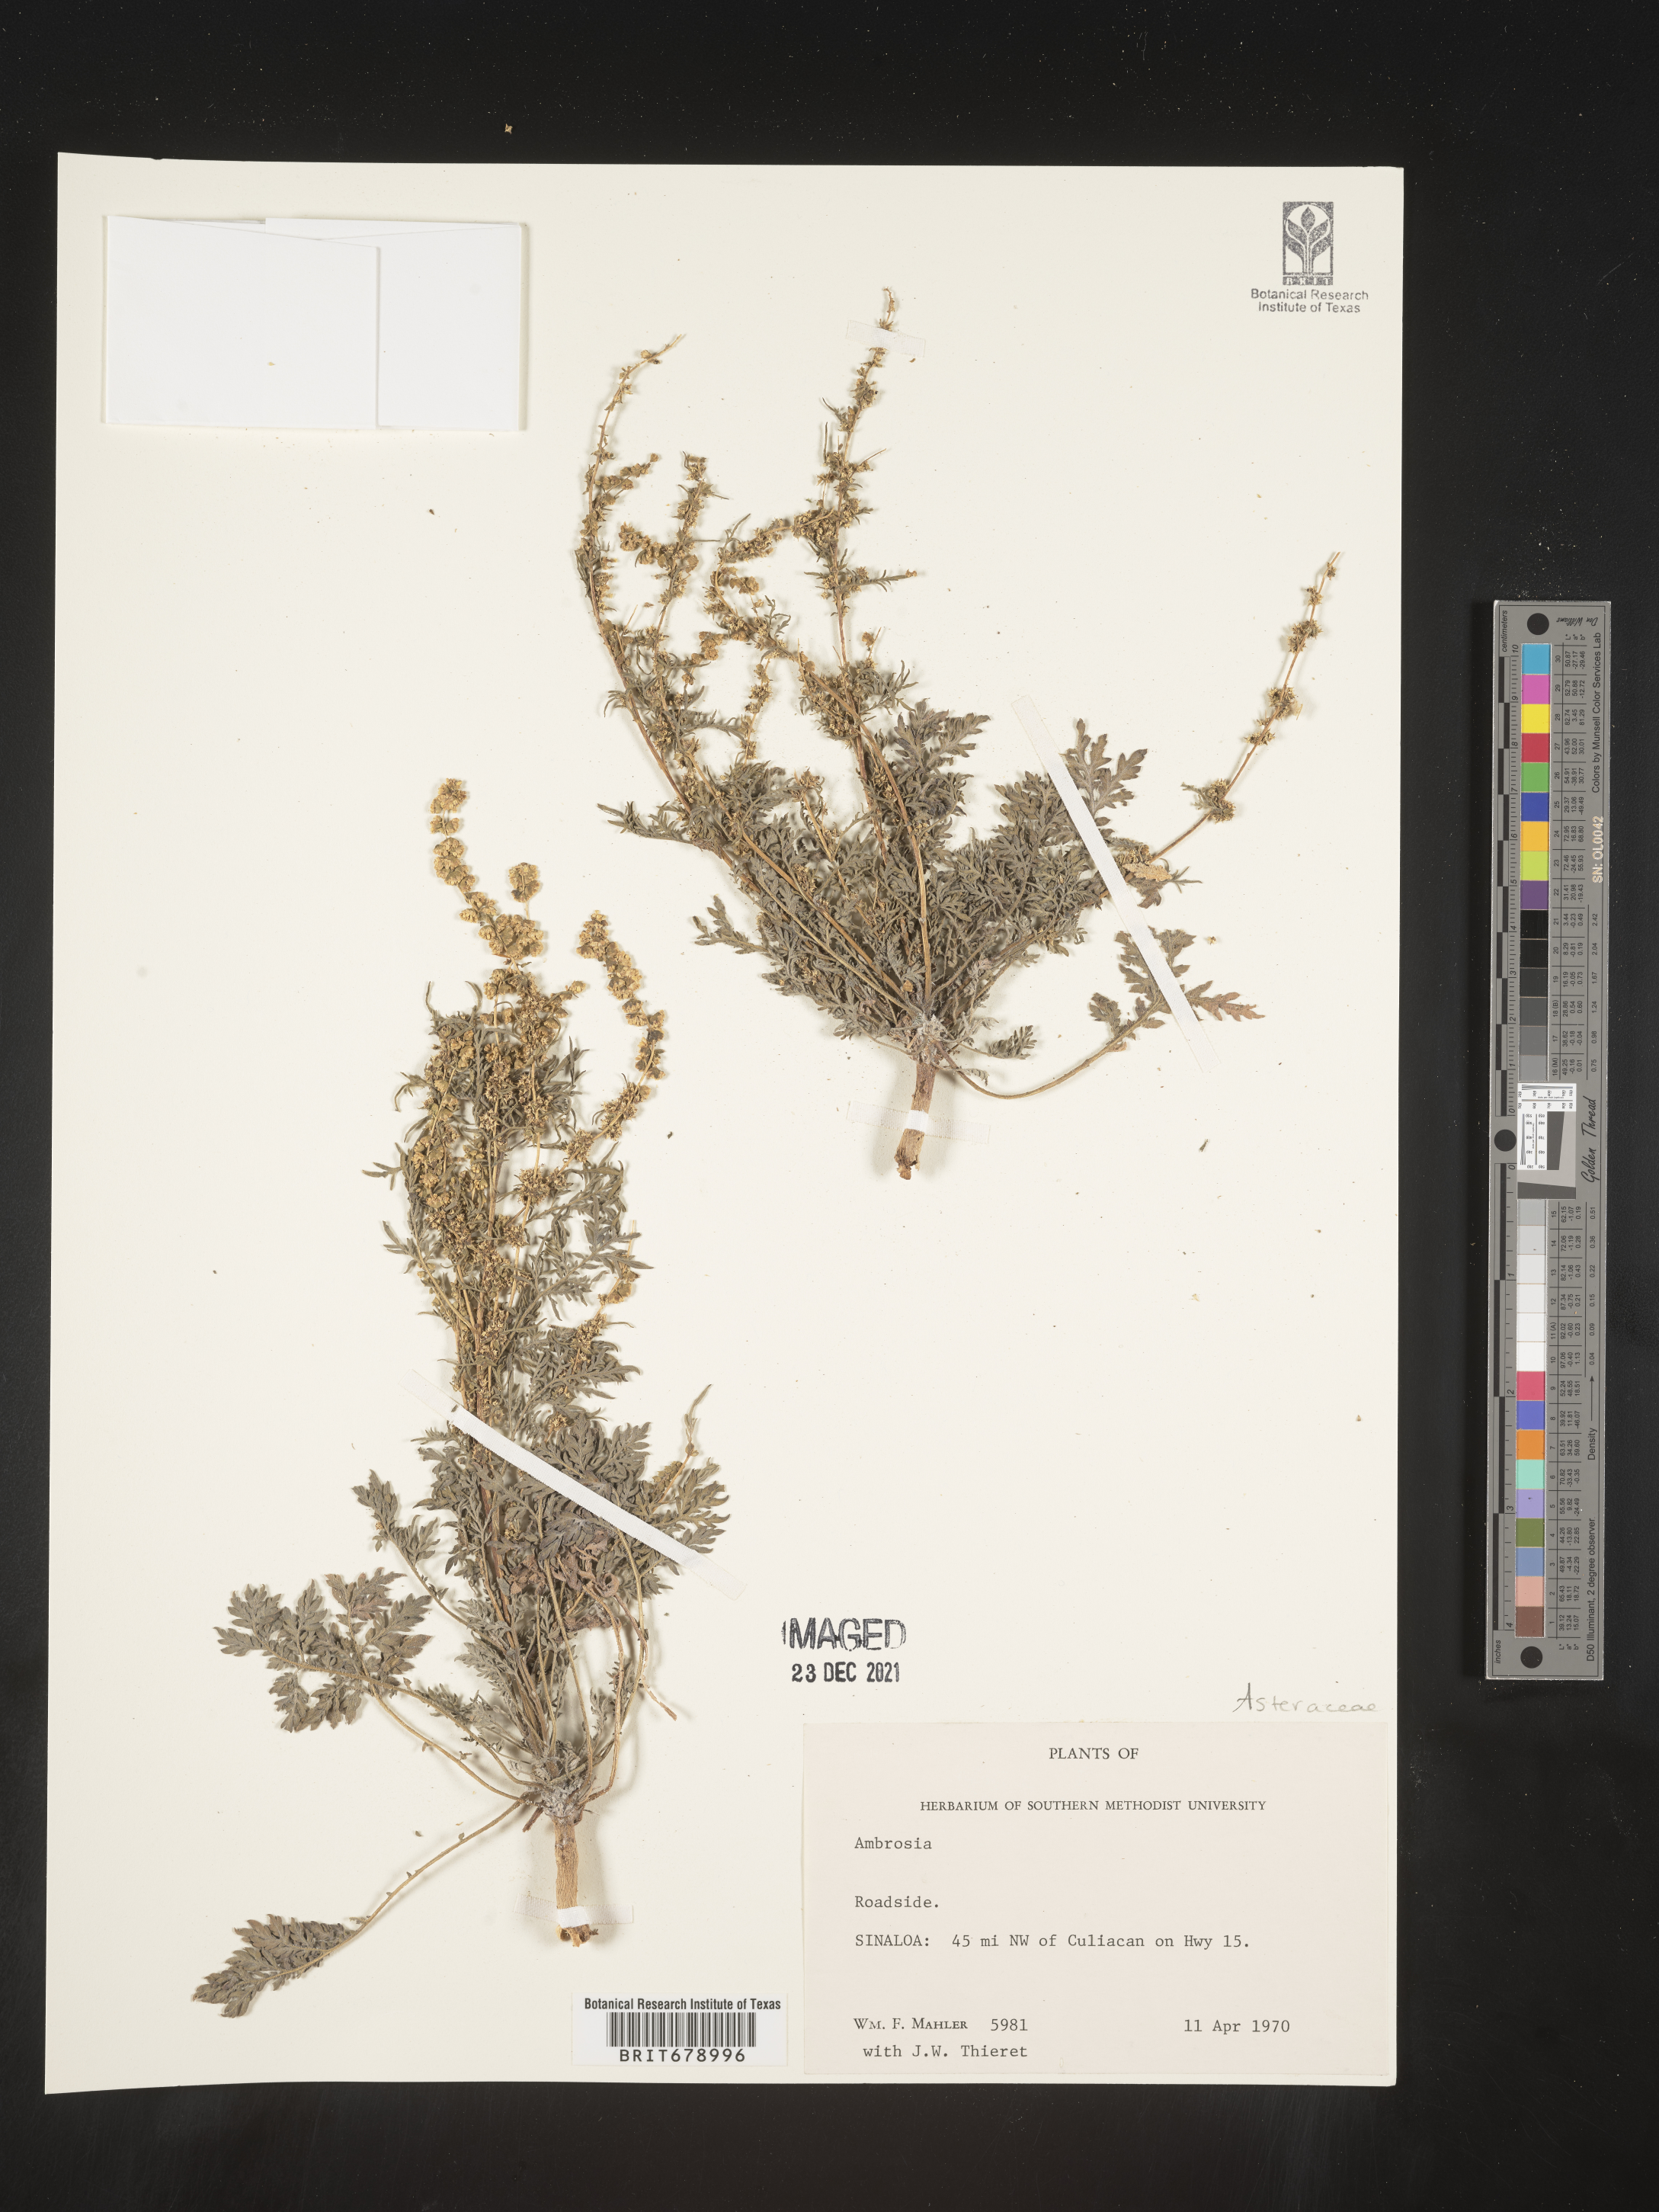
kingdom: Plantae
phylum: Tracheophyta
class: Magnoliopsida
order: Asterales
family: Asteraceae
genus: Ambrosia
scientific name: Ambrosia
